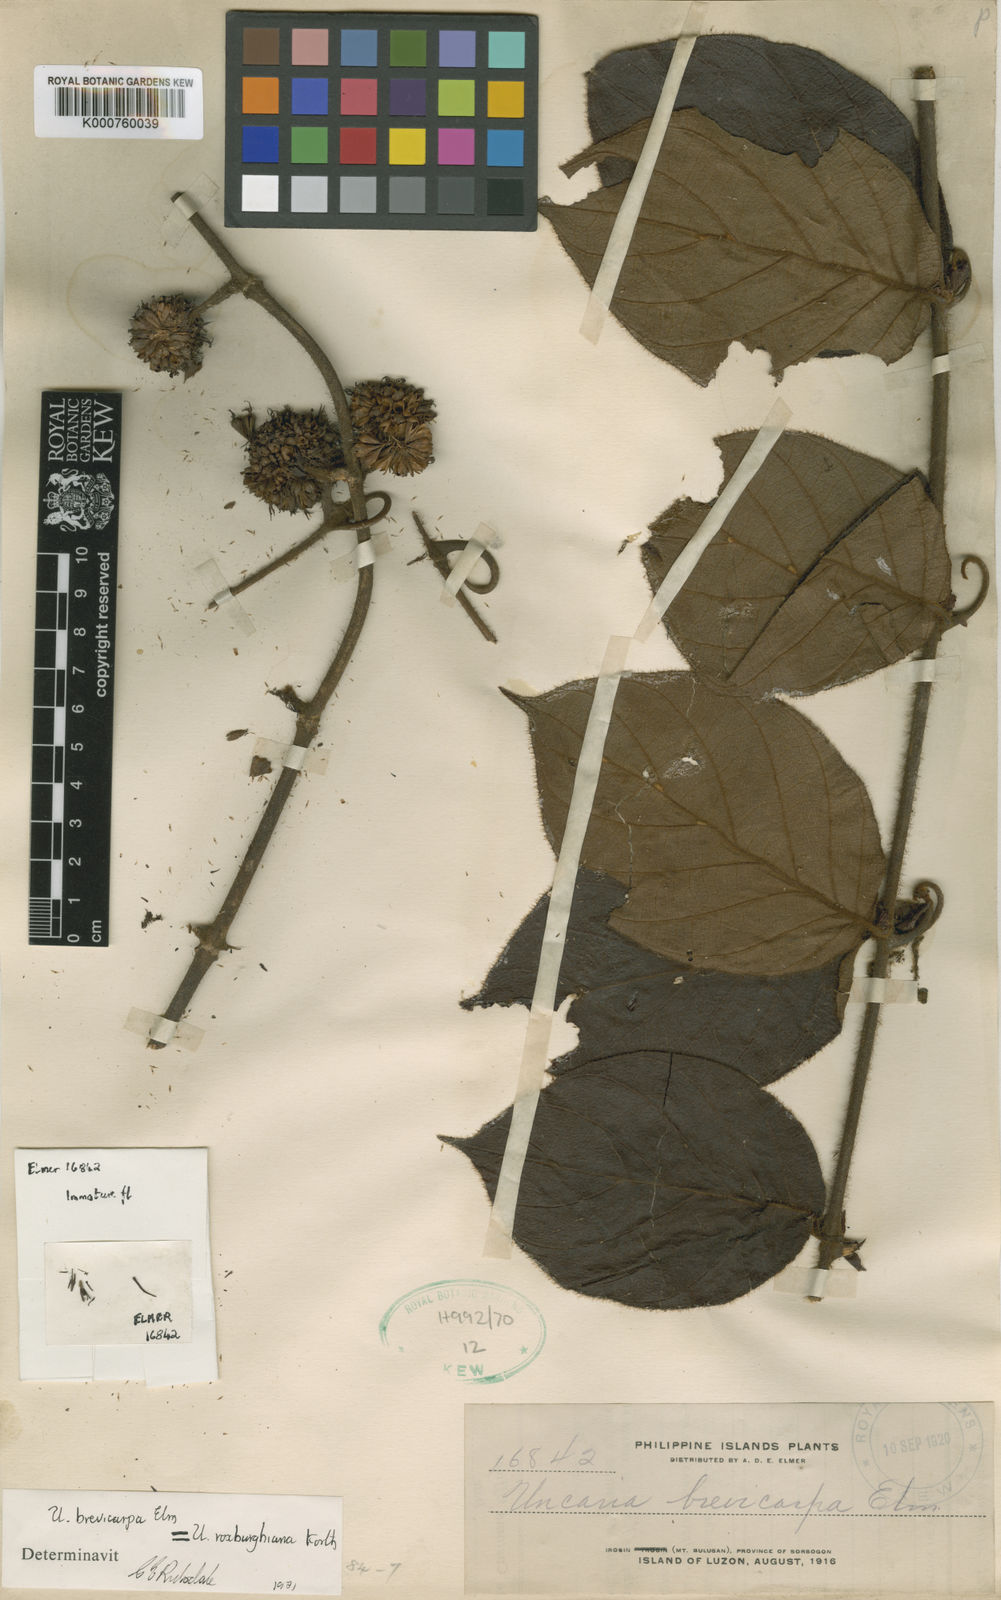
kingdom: Plantae
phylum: Tracheophyta
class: Magnoliopsida
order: Gentianales
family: Rubiaceae
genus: Uncaria
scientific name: Uncaria roxburghiana
